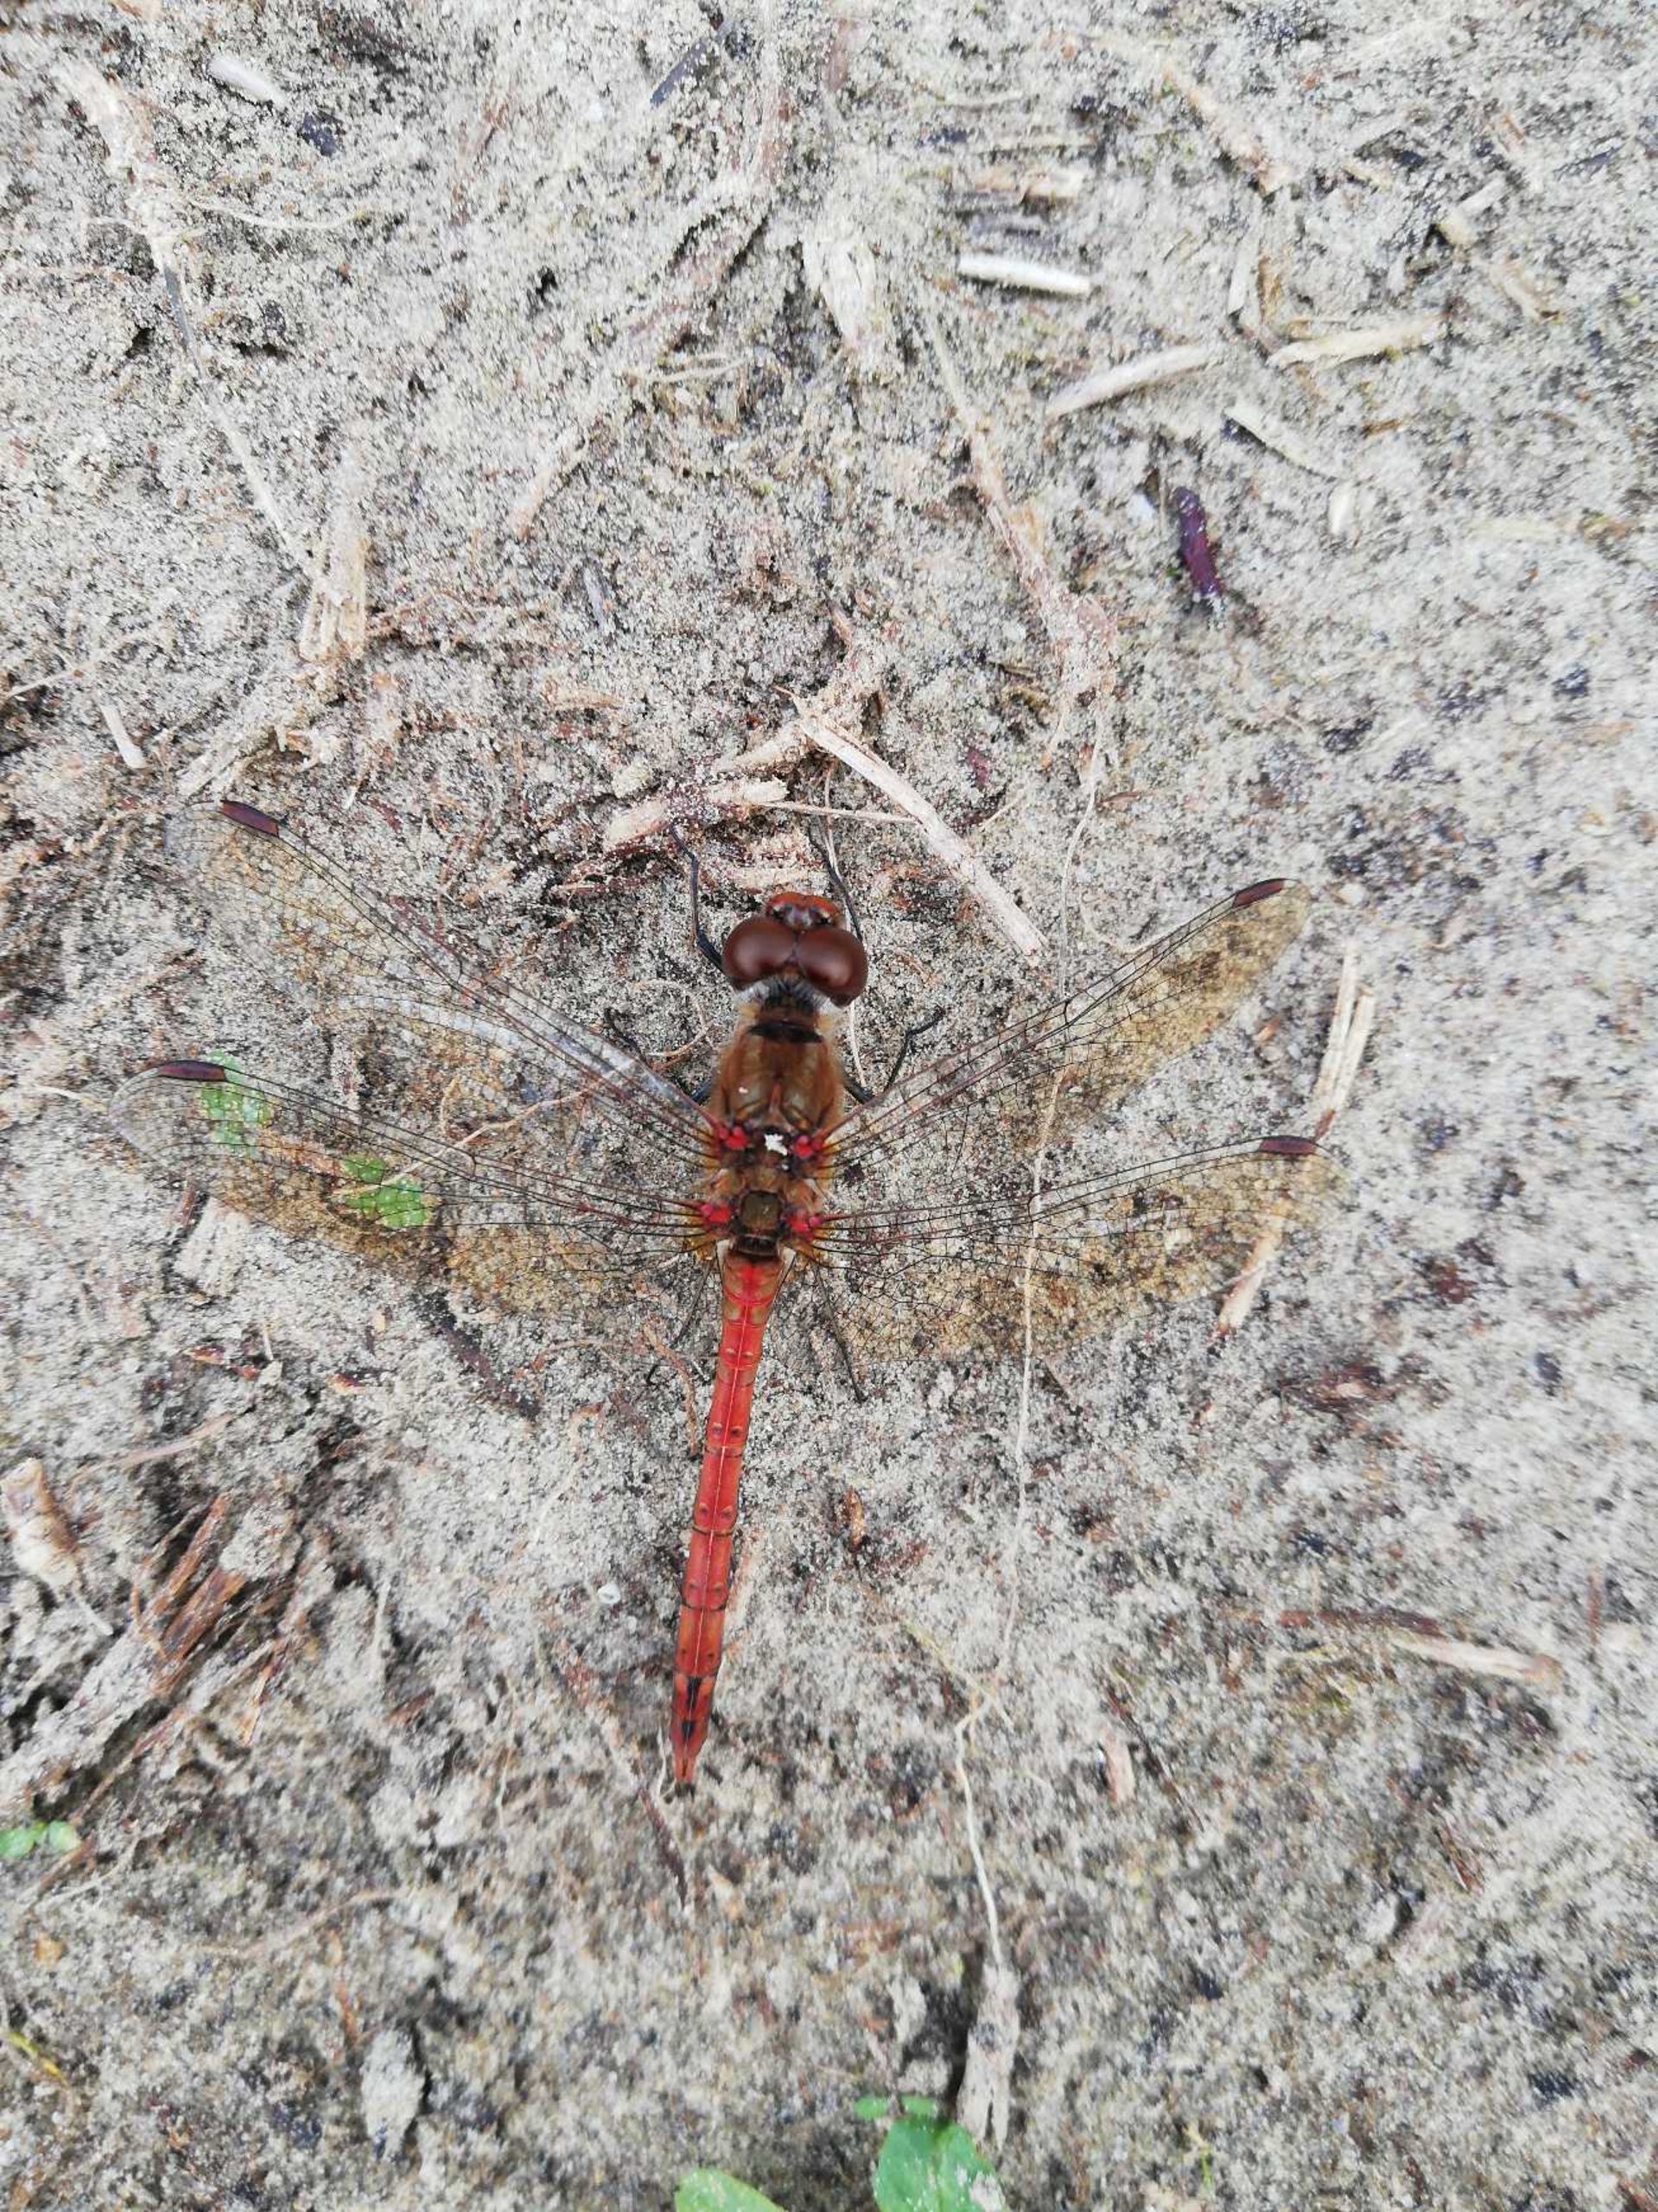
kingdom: Animalia
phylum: Arthropoda
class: Insecta
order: Odonata
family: Libellulidae
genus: Sympetrum
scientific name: Sympetrum striolatum
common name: Stor hedelibel
